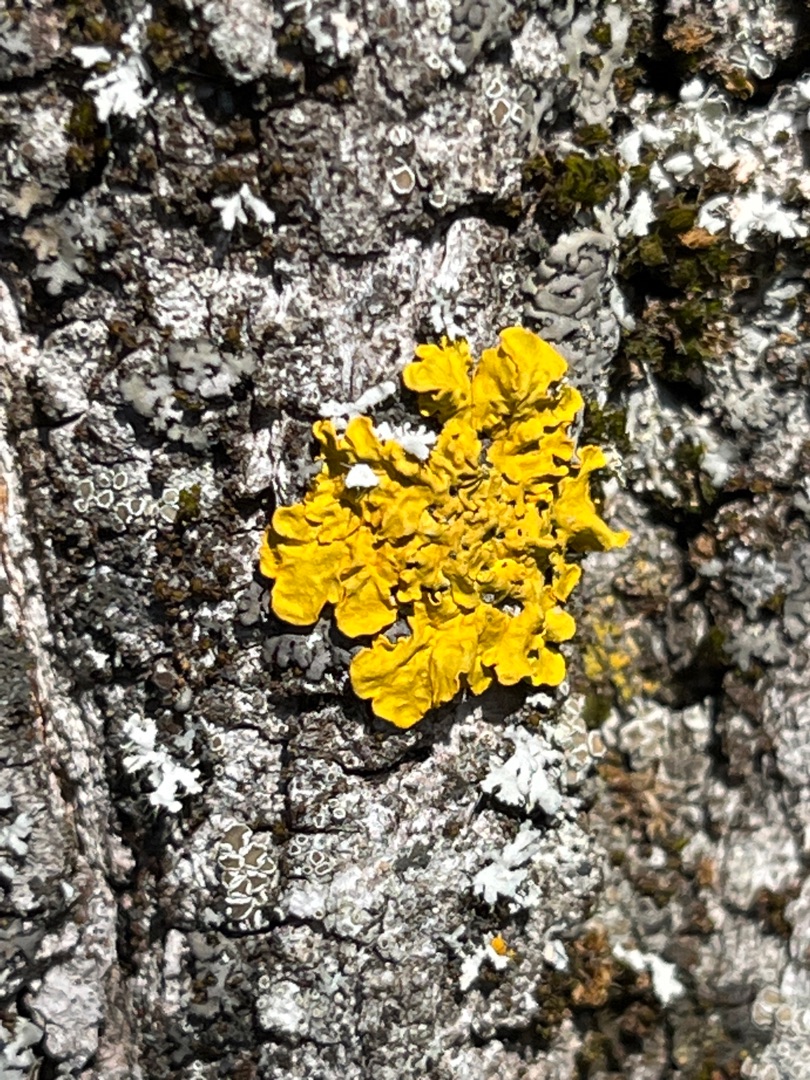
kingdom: Fungi
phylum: Ascomycota
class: Lecanoromycetes
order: Teloschistales
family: Teloschistaceae
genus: Xanthoria
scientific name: Xanthoria parietina
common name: Almindelig væggelav
